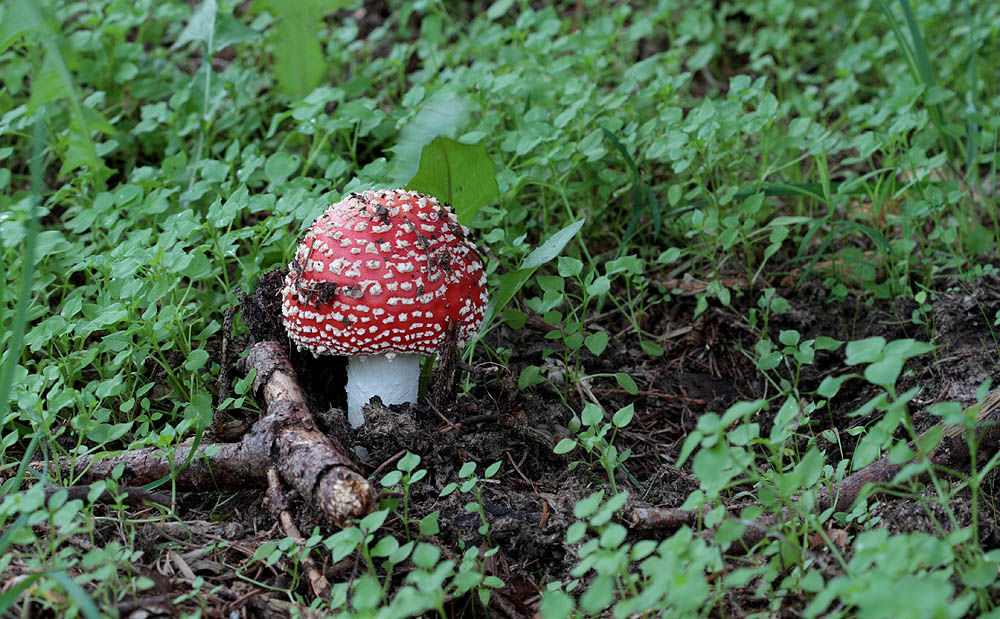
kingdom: Fungi
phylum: Basidiomycota
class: Agaricomycetes
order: Agaricales
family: Amanitaceae
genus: Amanita
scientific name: Amanita muscaria
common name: rød fluesvamp
